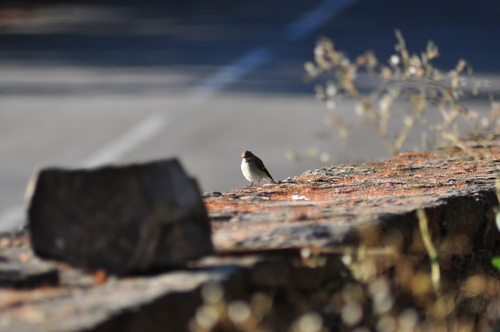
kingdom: Animalia
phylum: Chordata
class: Aves
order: Passeriformes
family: Muscicapidae
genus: Ficedula
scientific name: Ficedula hypoleuca
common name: European pied flycatcher
